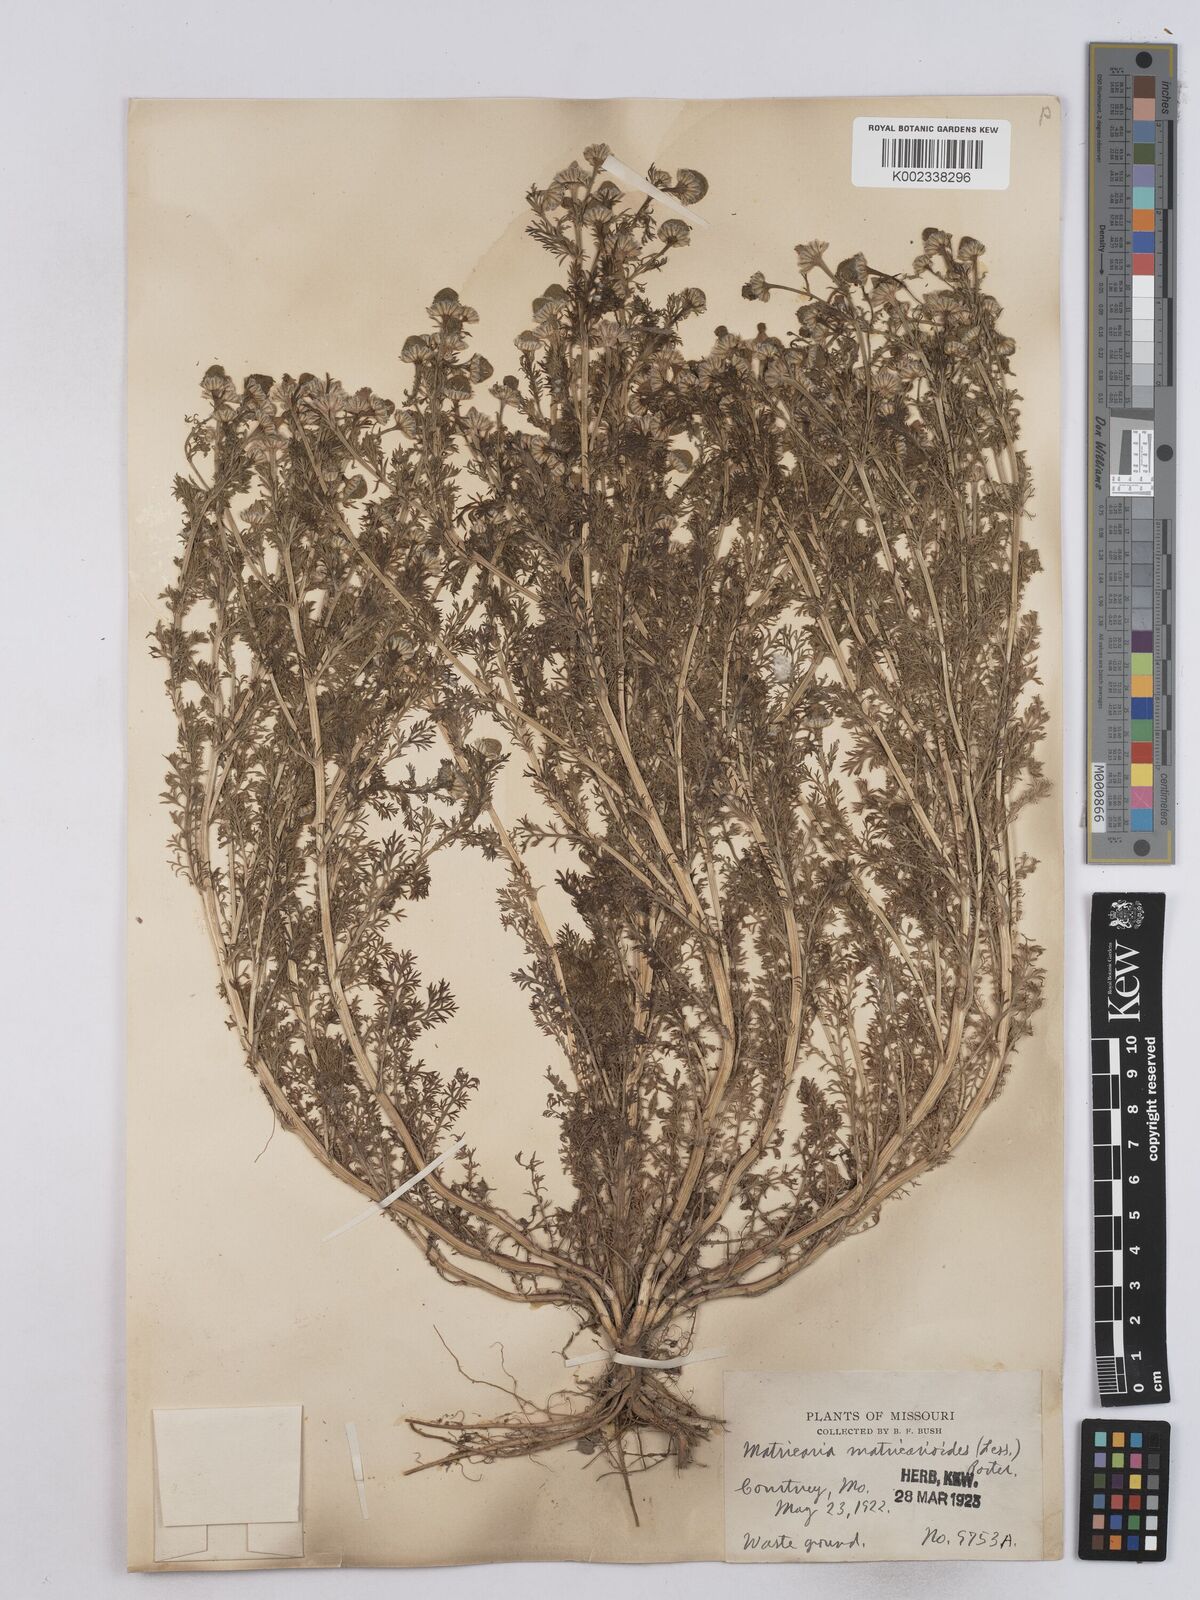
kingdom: Plantae
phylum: Tracheophyta
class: Magnoliopsida
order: Asterales
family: Asteraceae
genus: Matricaria
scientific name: Matricaria discoidea
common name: Disc mayweed
